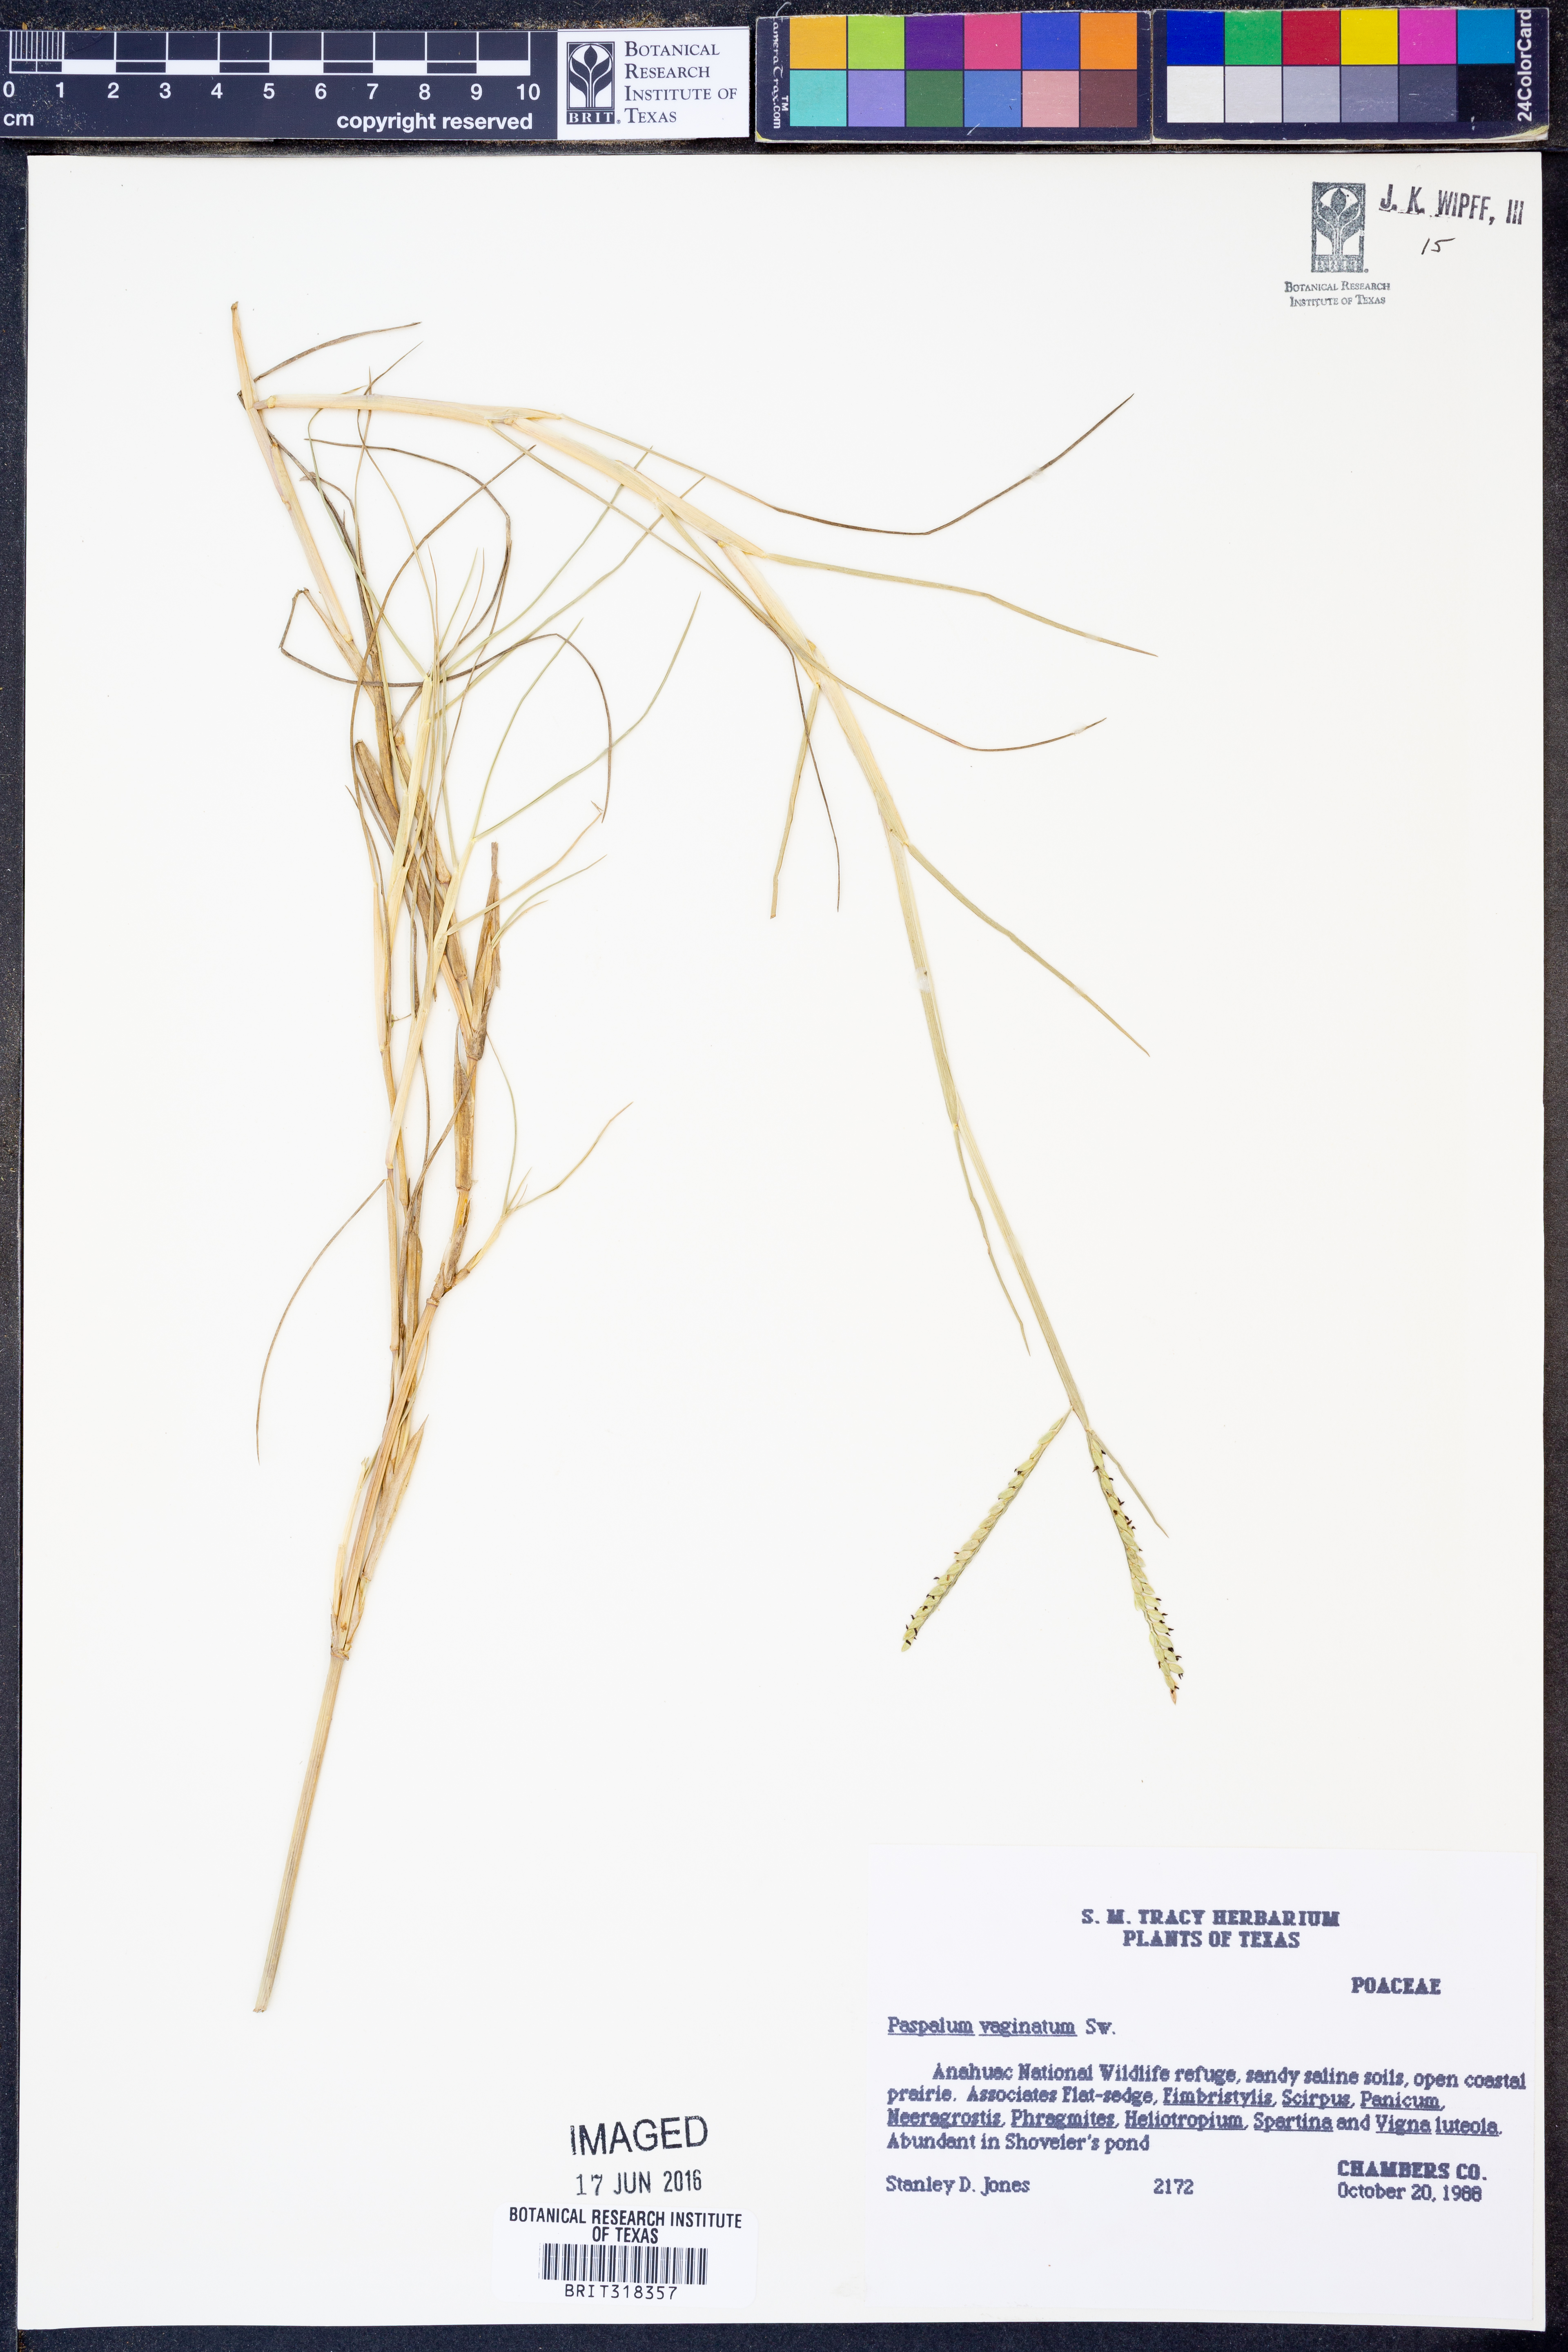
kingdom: Plantae
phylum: Tracheophyta
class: Liliopsida
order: Poales
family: Poaceae
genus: Paspalum
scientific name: Paspalum vaginatum
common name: Seashore paspalum
